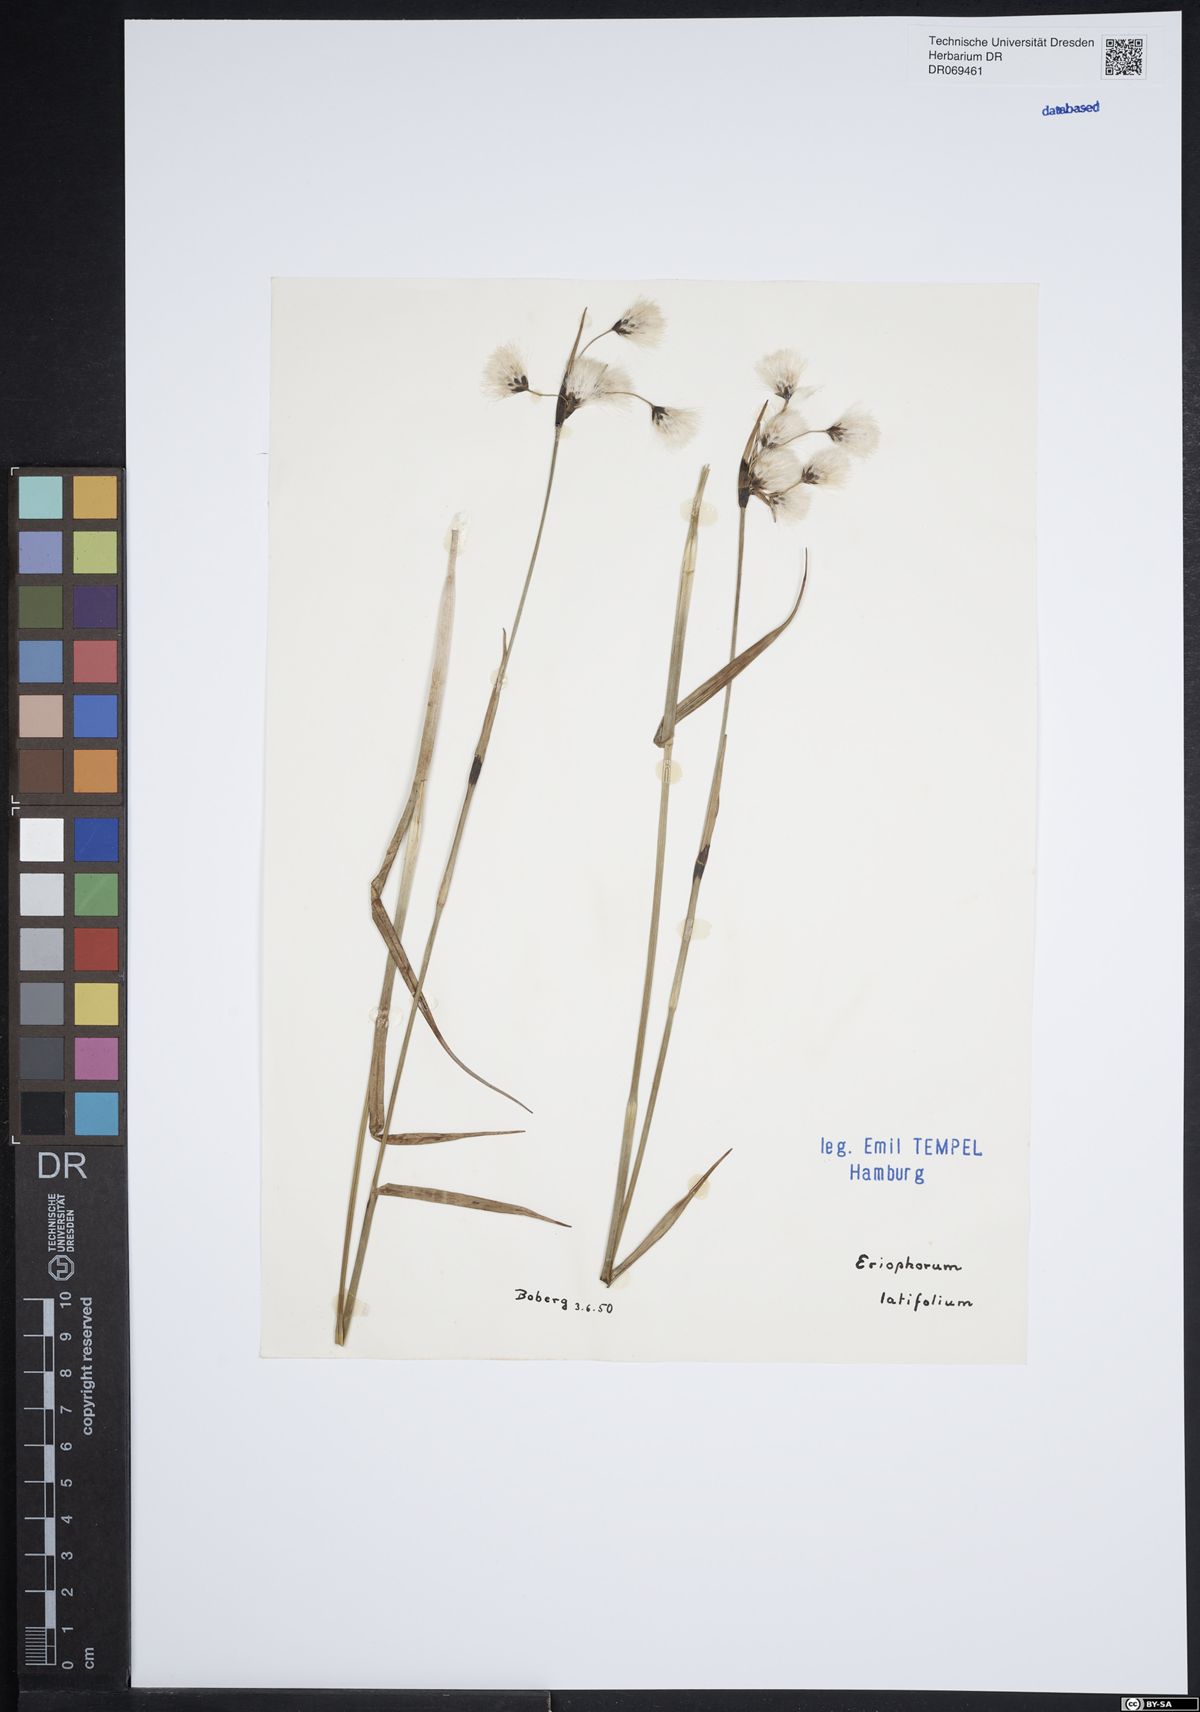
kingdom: Plantae
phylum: Tracheophyta
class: Liliopsida
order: Poales
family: Cyperaceae
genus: Eriophorum
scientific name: Eriophorum latifolium
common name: Broad-leaved cottongrass
